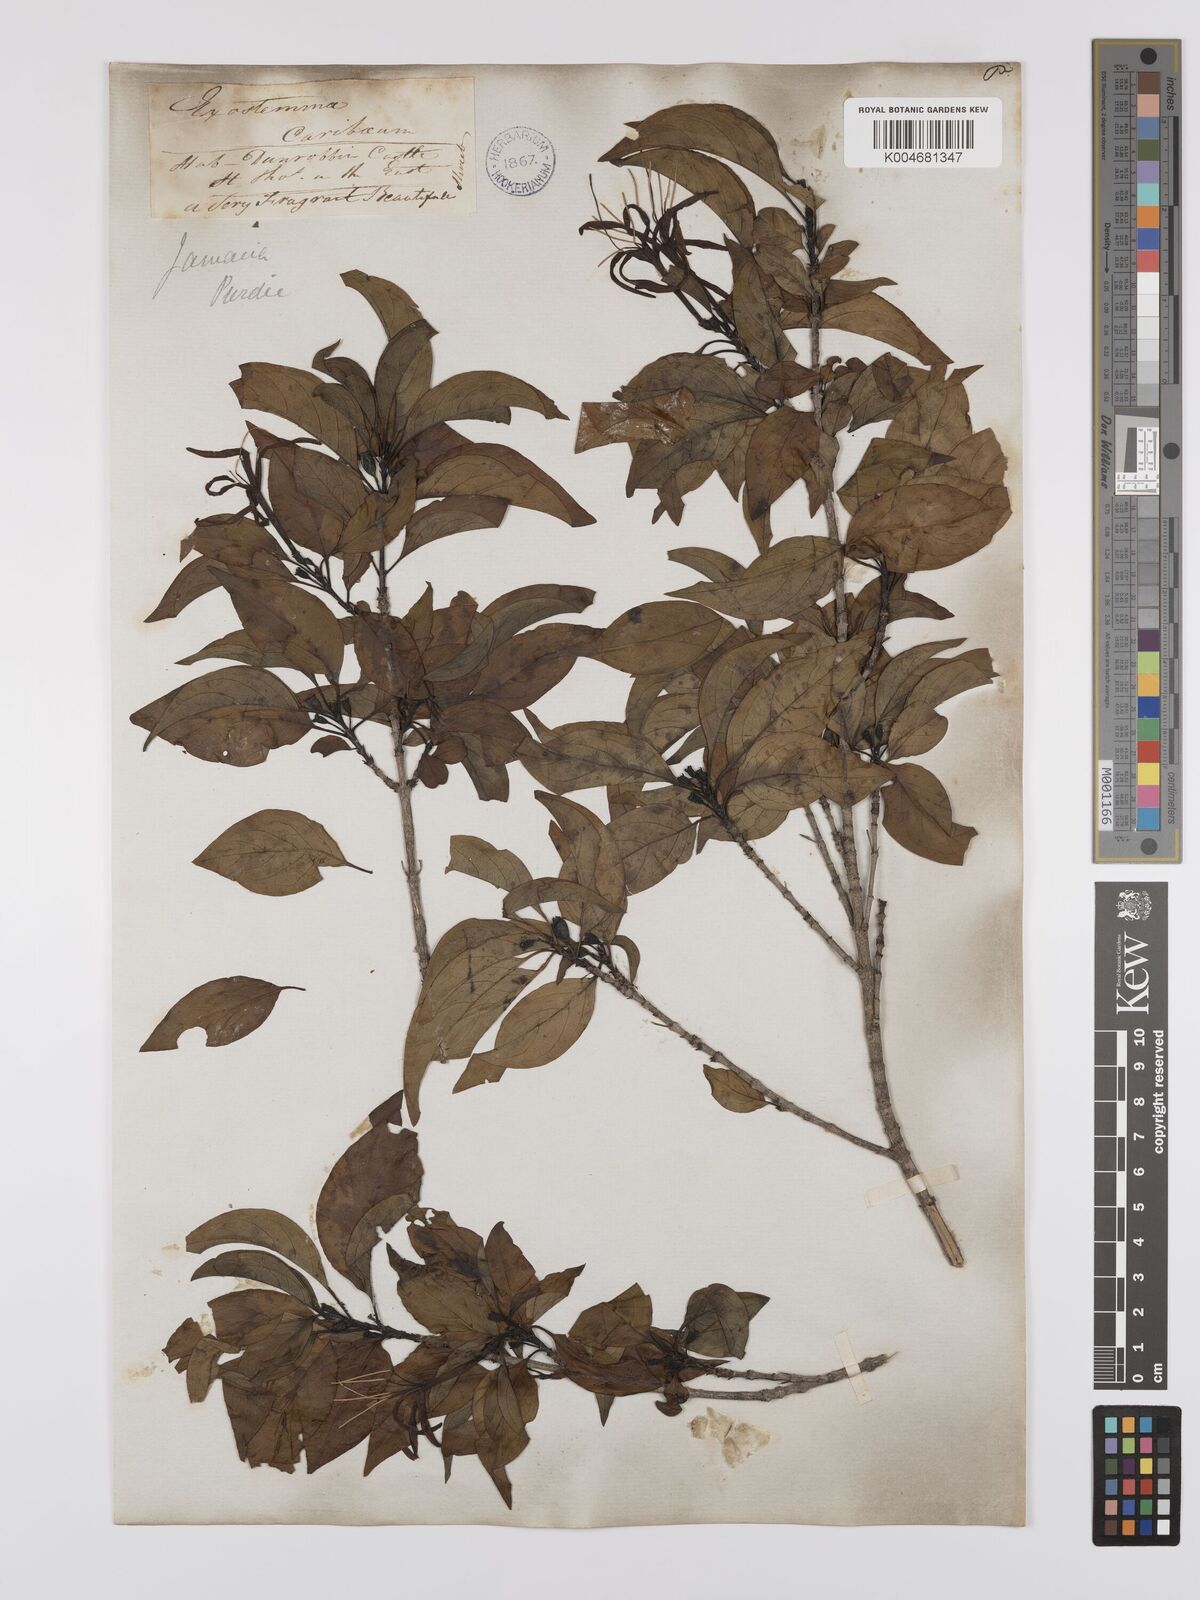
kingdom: Plantae
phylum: Tracheophyta
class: Magnoliopsida
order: Gentianales
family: Rubiaceae
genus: Exostema
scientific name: Exostema caribaeum
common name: Princewood
